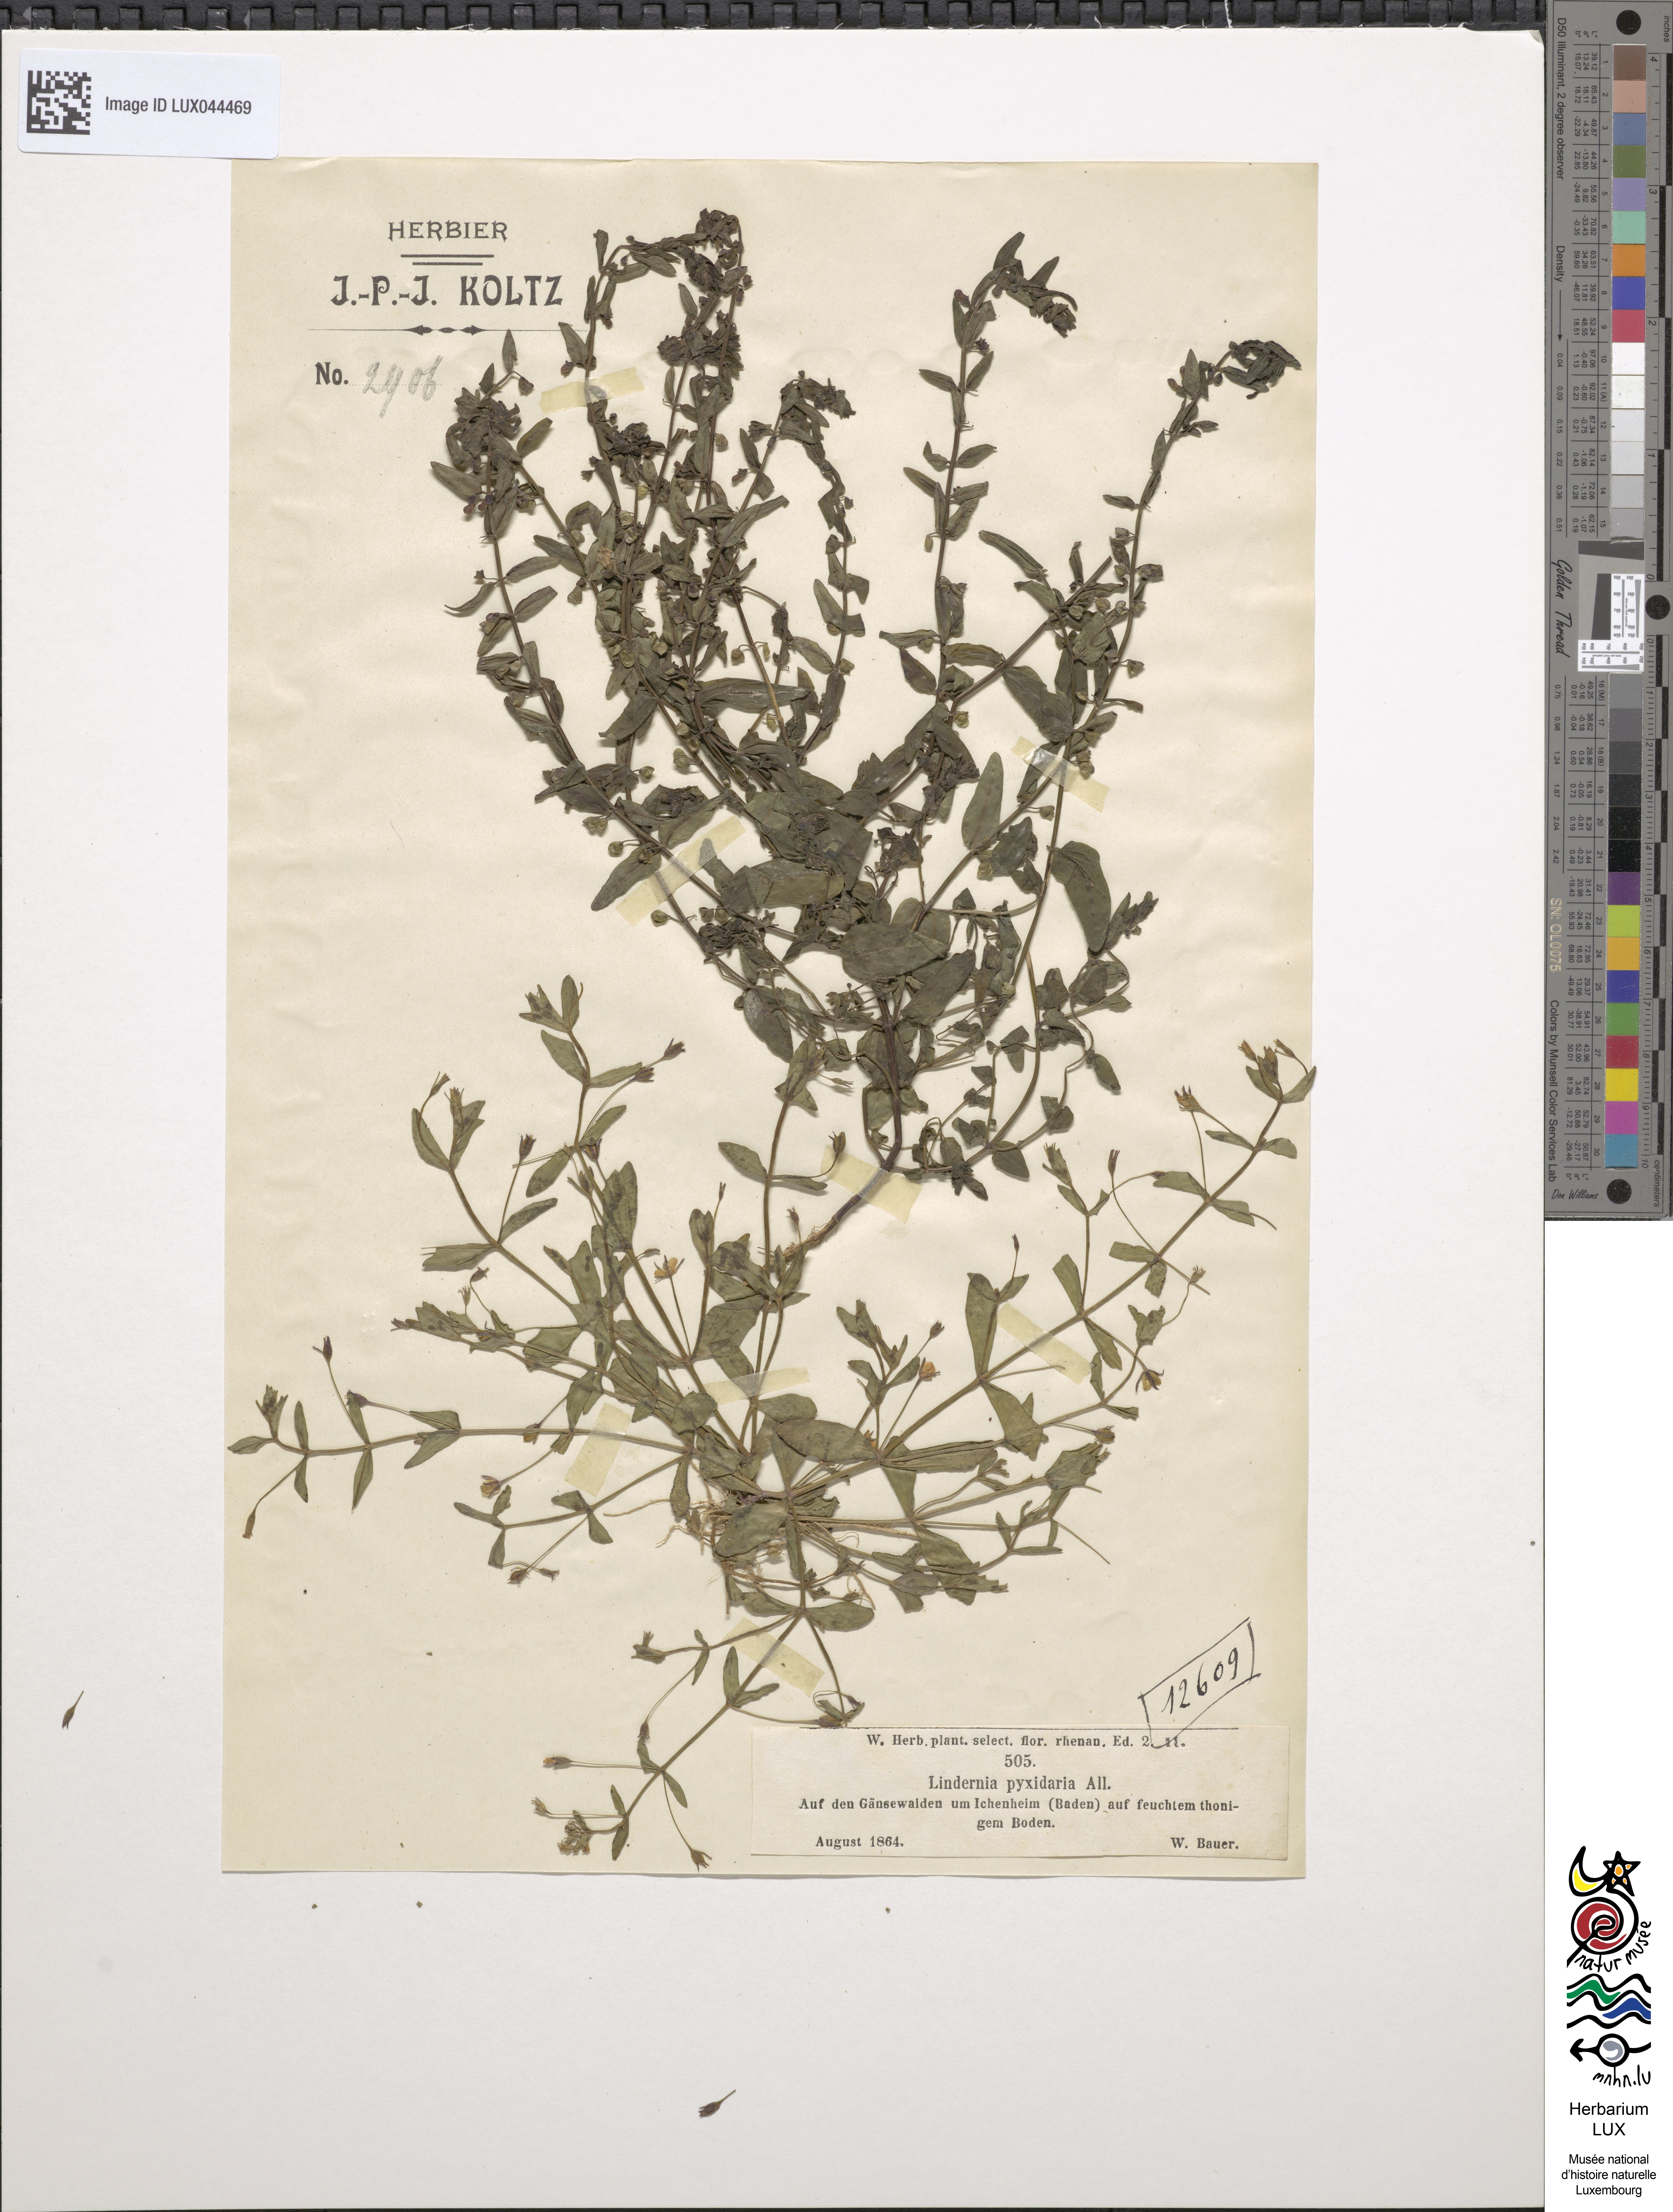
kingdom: Plantae
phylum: Tracheophyta
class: Magnoliopsida
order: Lamiales
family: Linderniaceae
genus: Lindernia
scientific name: Lindernia procumbens
